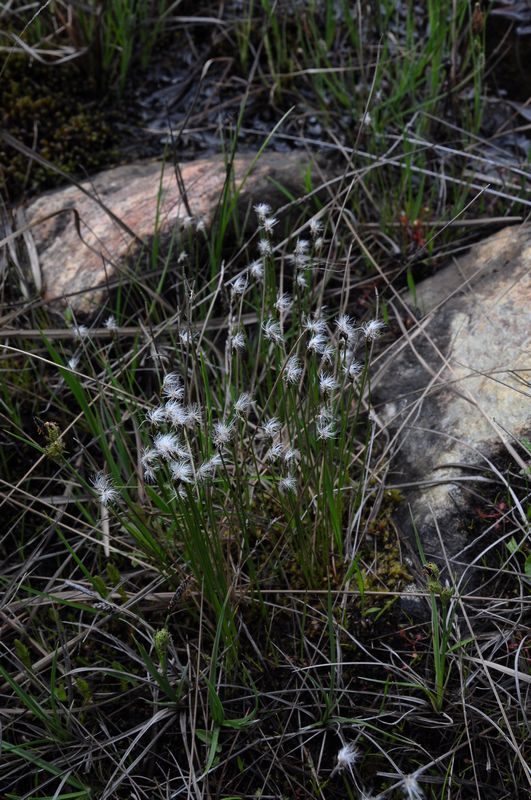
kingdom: Plantae
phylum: Tracheophyta
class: Liliopsida
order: Poales
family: Cyperaceae
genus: Trichophorum
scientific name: Trichophorum alpinum
